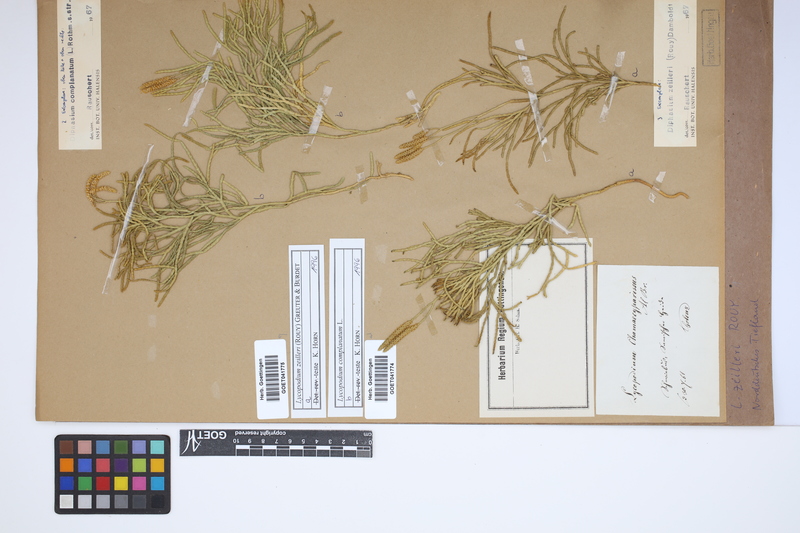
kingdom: Plantae
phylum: Tracheophyta
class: Lycopodiopsida
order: Lycopodiales
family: Lycopodiaceae
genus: Diphasiastrum
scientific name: Diphasiastrum zeilleri
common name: Zeiller's clubmoss
